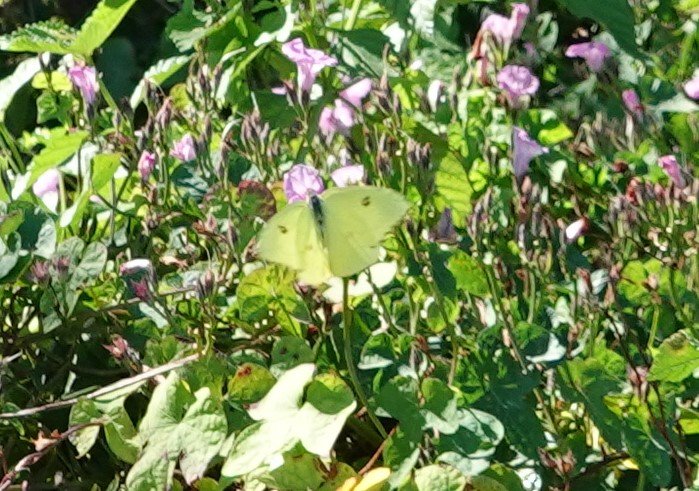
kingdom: Animalia
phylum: Arthropoda
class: Insecta
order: Lepidoptera
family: Pieridae
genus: Phoebis
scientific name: Phoebis sennae
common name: Cloudless Sulphur
